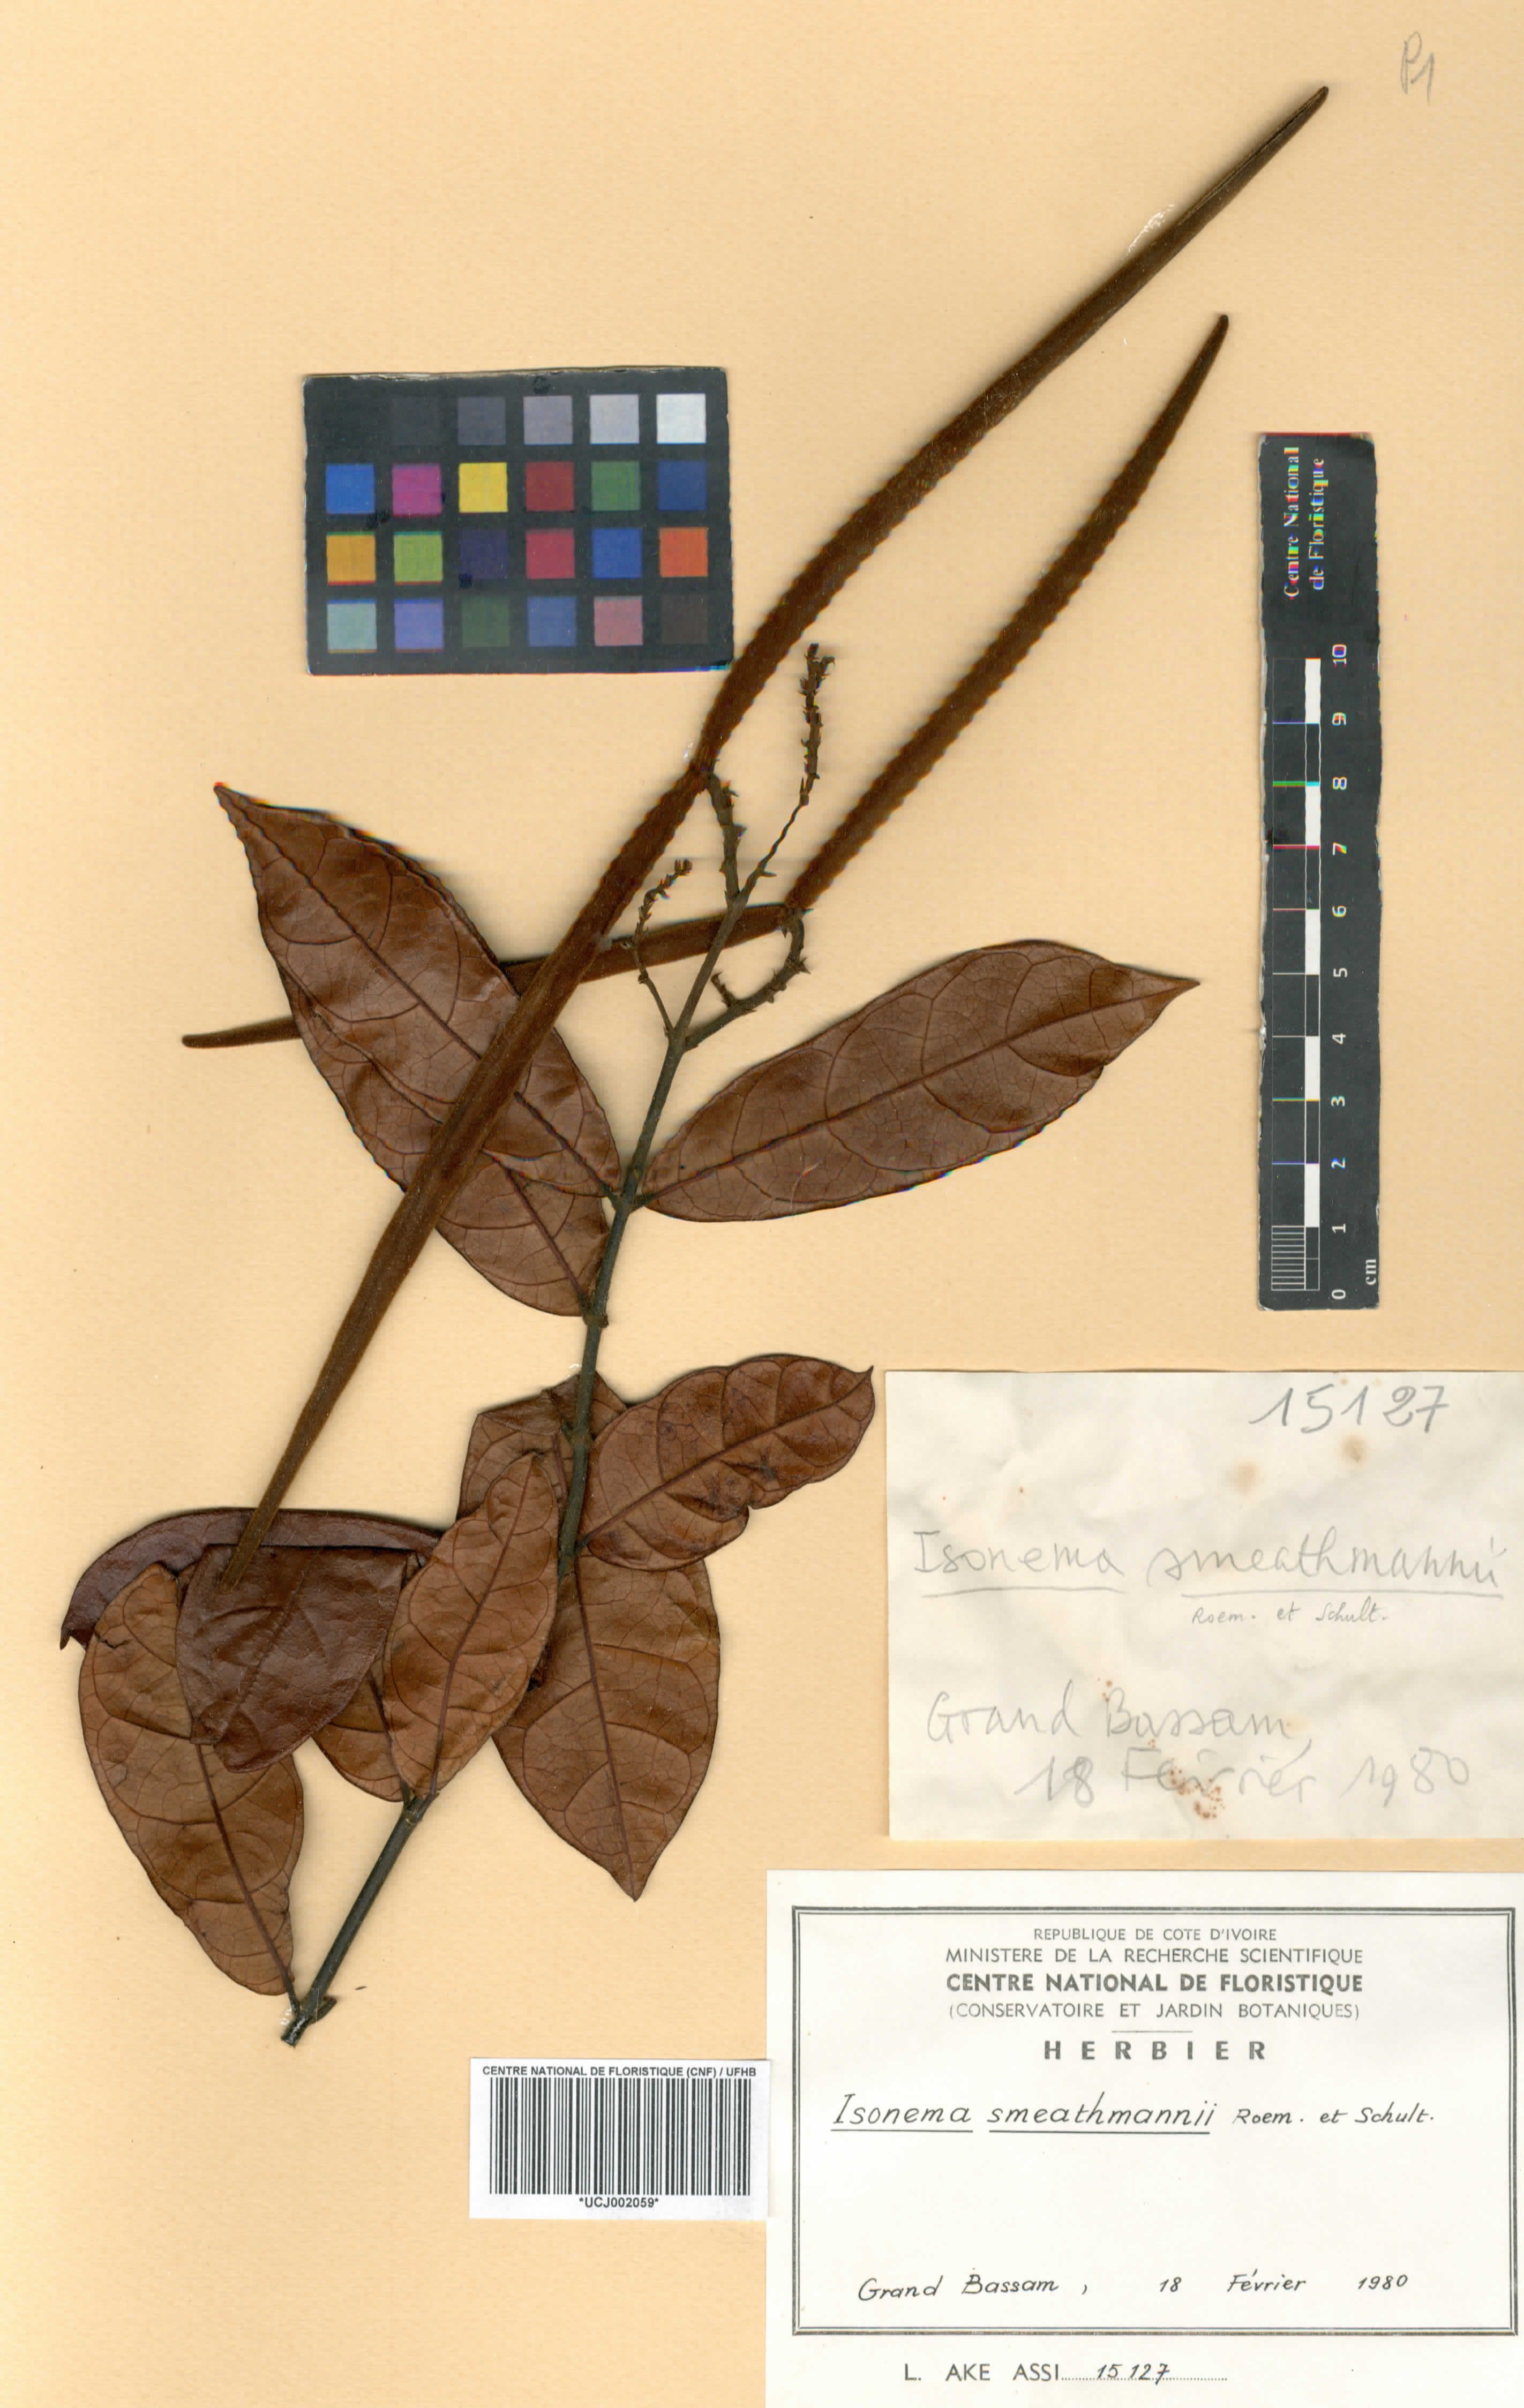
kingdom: Plantae
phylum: Tracheophyta
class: Magnoliopsida
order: Gentianales
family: Apocynaceae
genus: Isonema
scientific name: Isonema smeathmannii
